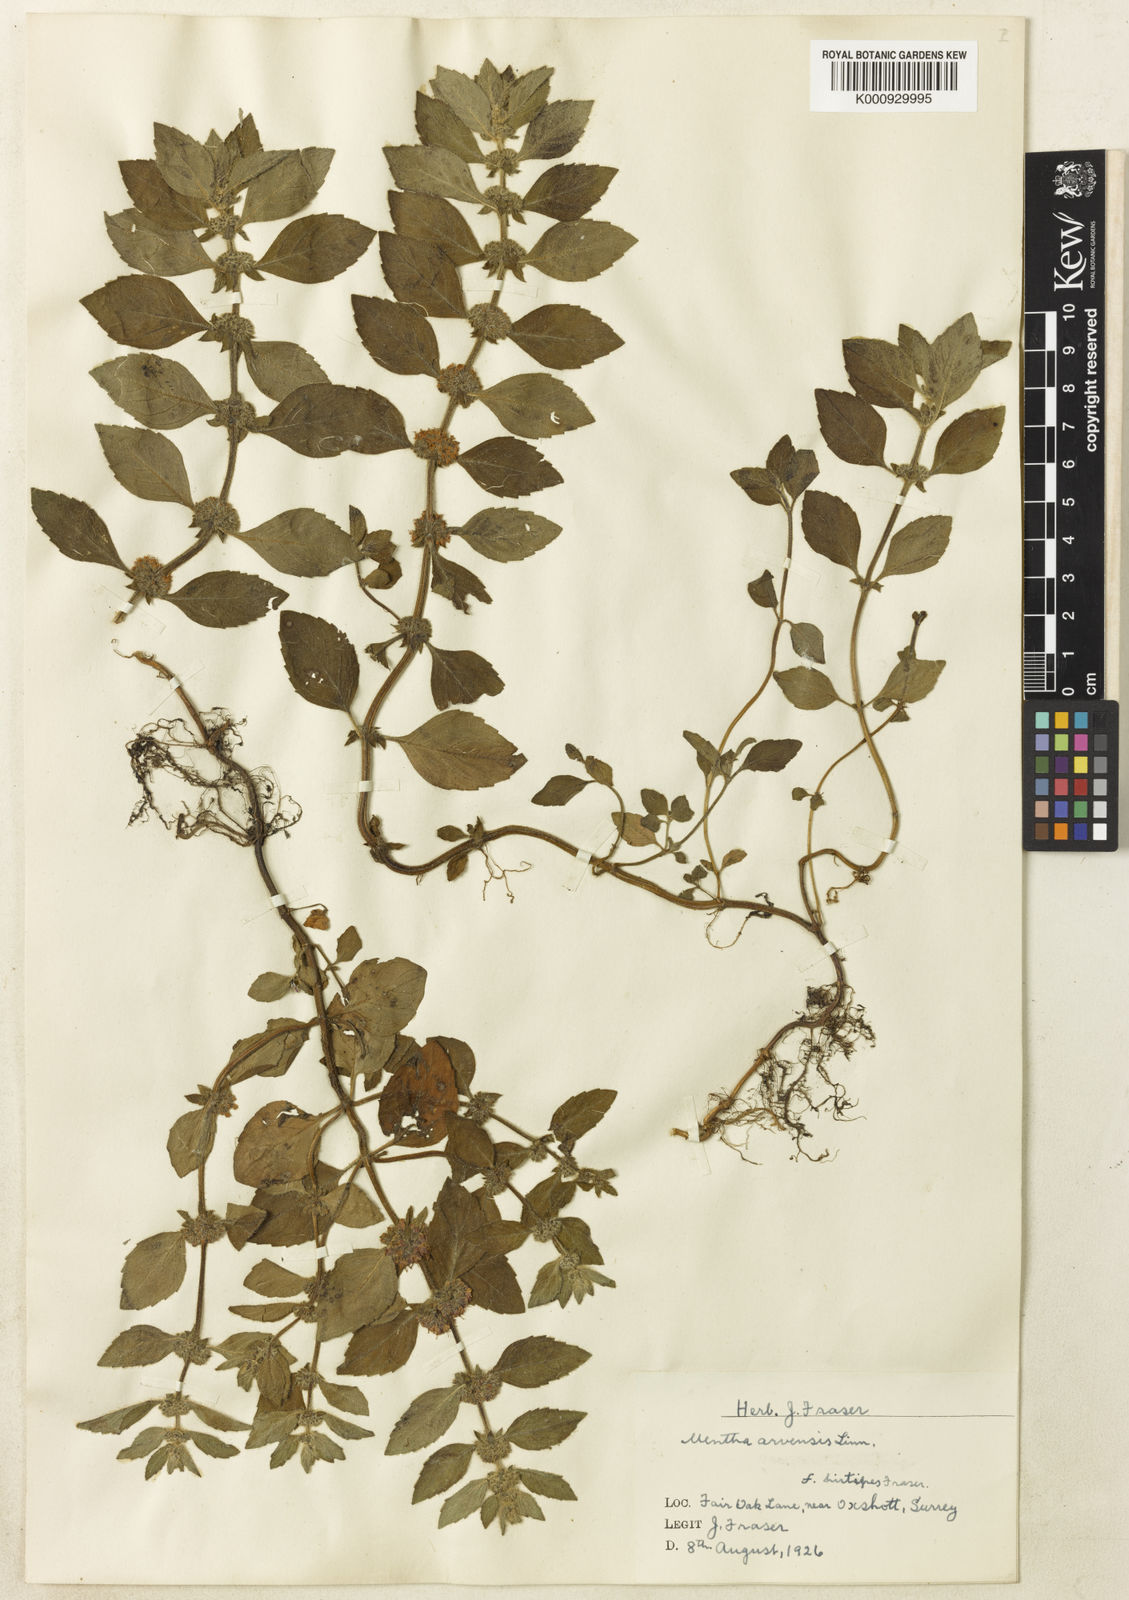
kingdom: Plantae
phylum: Tracheophyta
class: Magnoliopsida
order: Lamiales
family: Lamiaceae
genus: Mentha
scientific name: Mentha arvensis
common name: Corn mint
